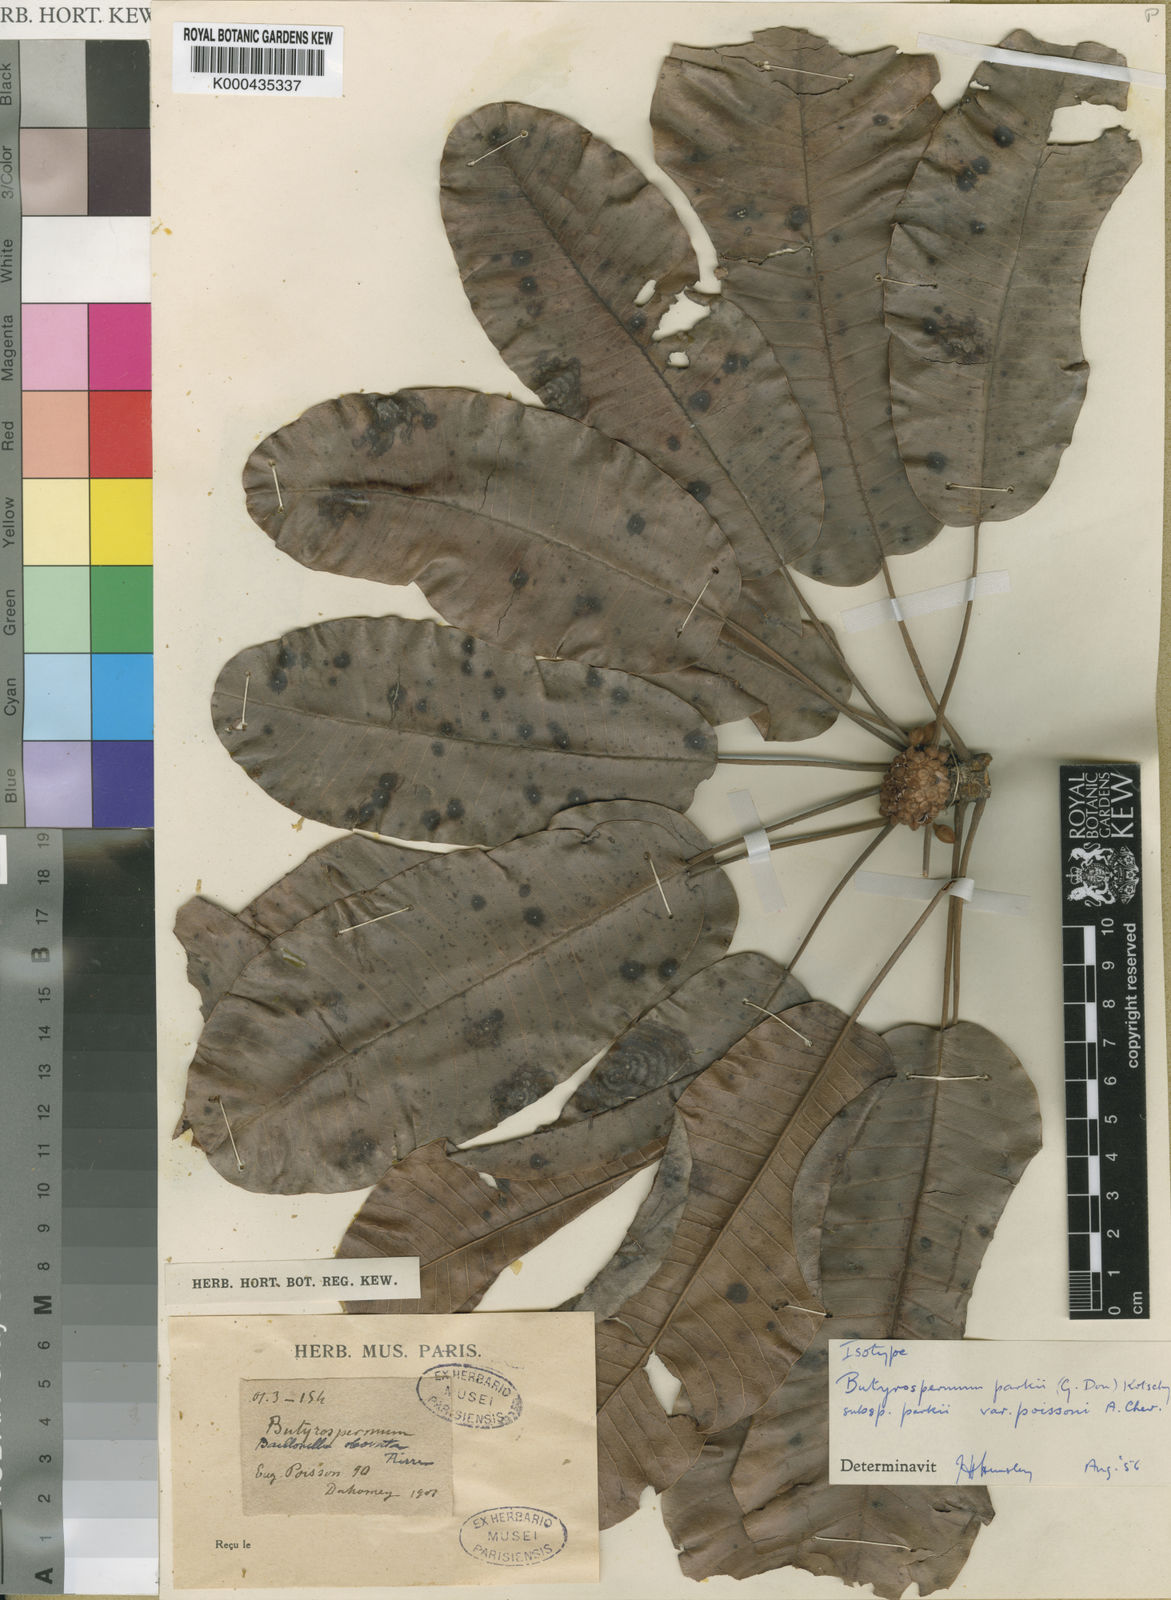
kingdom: Plantae
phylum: Tracheophyta
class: Magnoliopsida
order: Ericales
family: Sapotaceae
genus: Vitellaria
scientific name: Vitellaria paradoxa
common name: Shea butter tree
